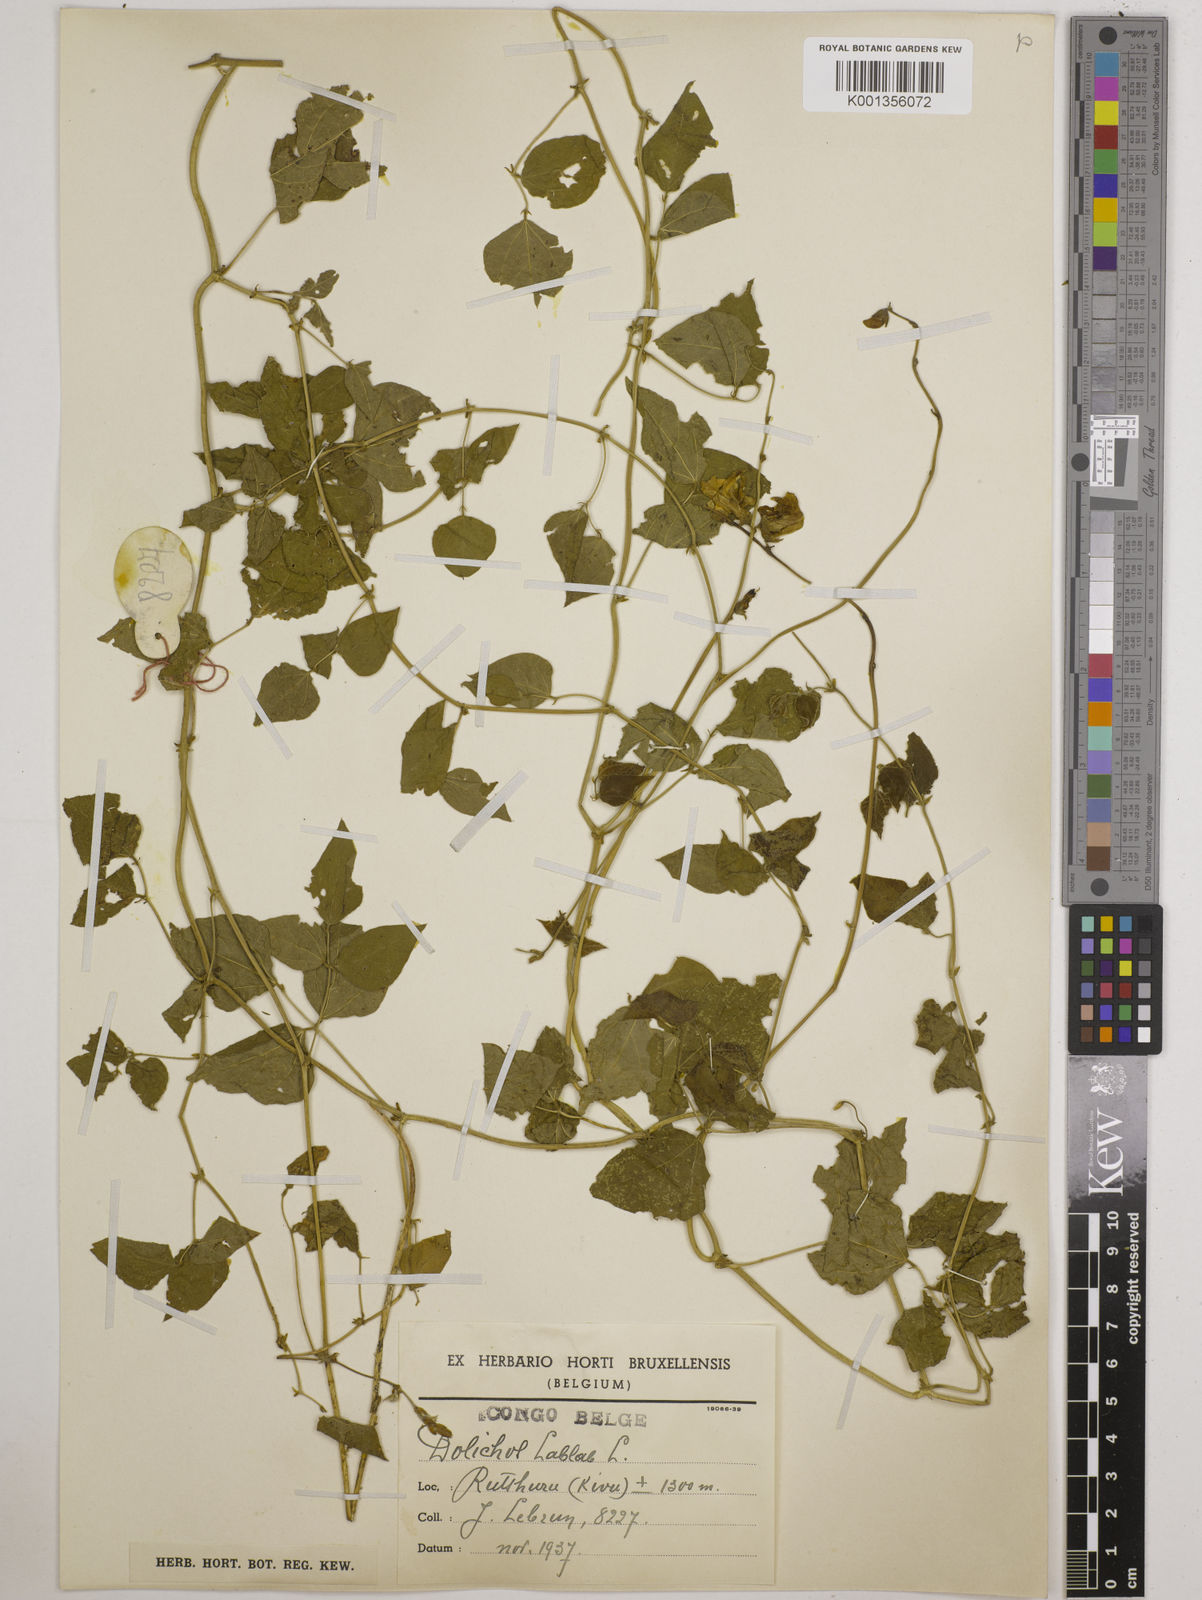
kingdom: Plantae
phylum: Tracheophyta
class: Magnoliopsida
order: Fabales
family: Fabaceae
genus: Lablab
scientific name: Lablab purpureus
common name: Lablab-bean
